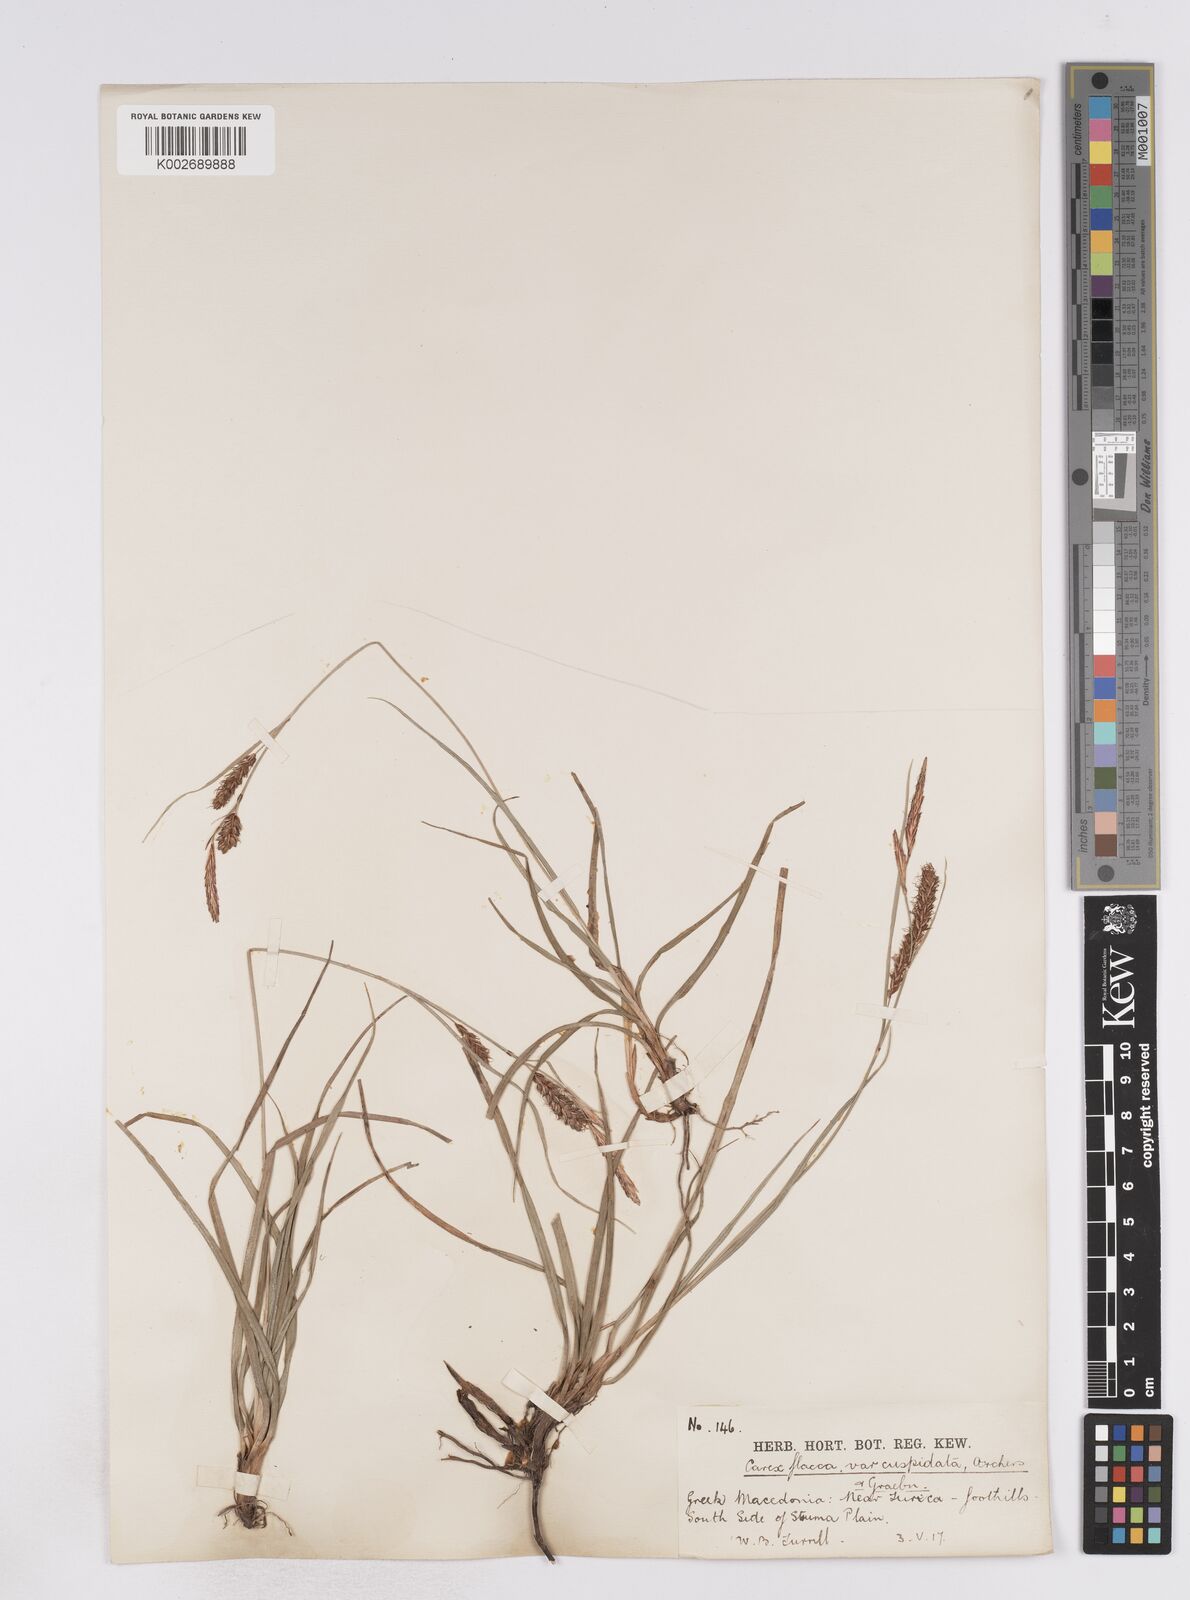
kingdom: Plantae
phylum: Tracheophyta
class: Liliopsida
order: Poales
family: Cyperaceae
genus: Carex
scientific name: Carex flacca
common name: Glaucous sedge
